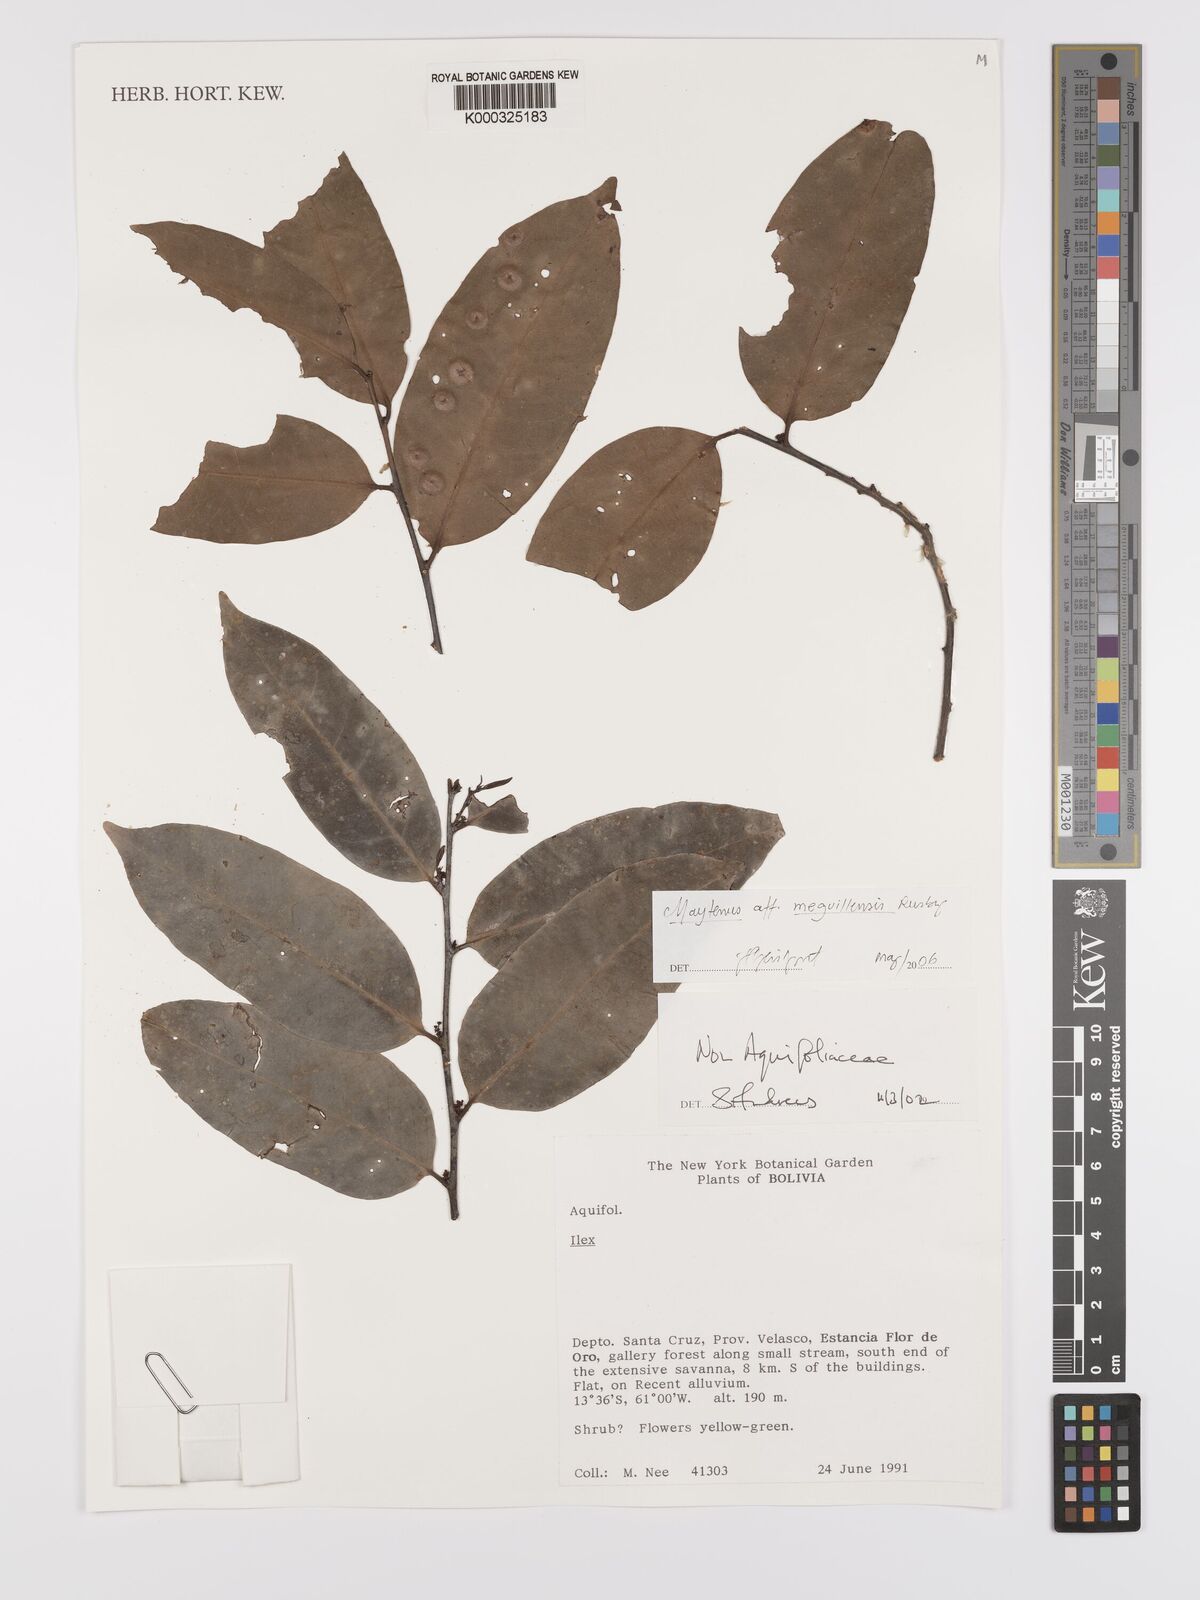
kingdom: Plantae
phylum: Tracheophyta
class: Magnoliopsida
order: Celastrales
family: Celastraceae
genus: Monteverdia
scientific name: Monteverdia meguillensis
